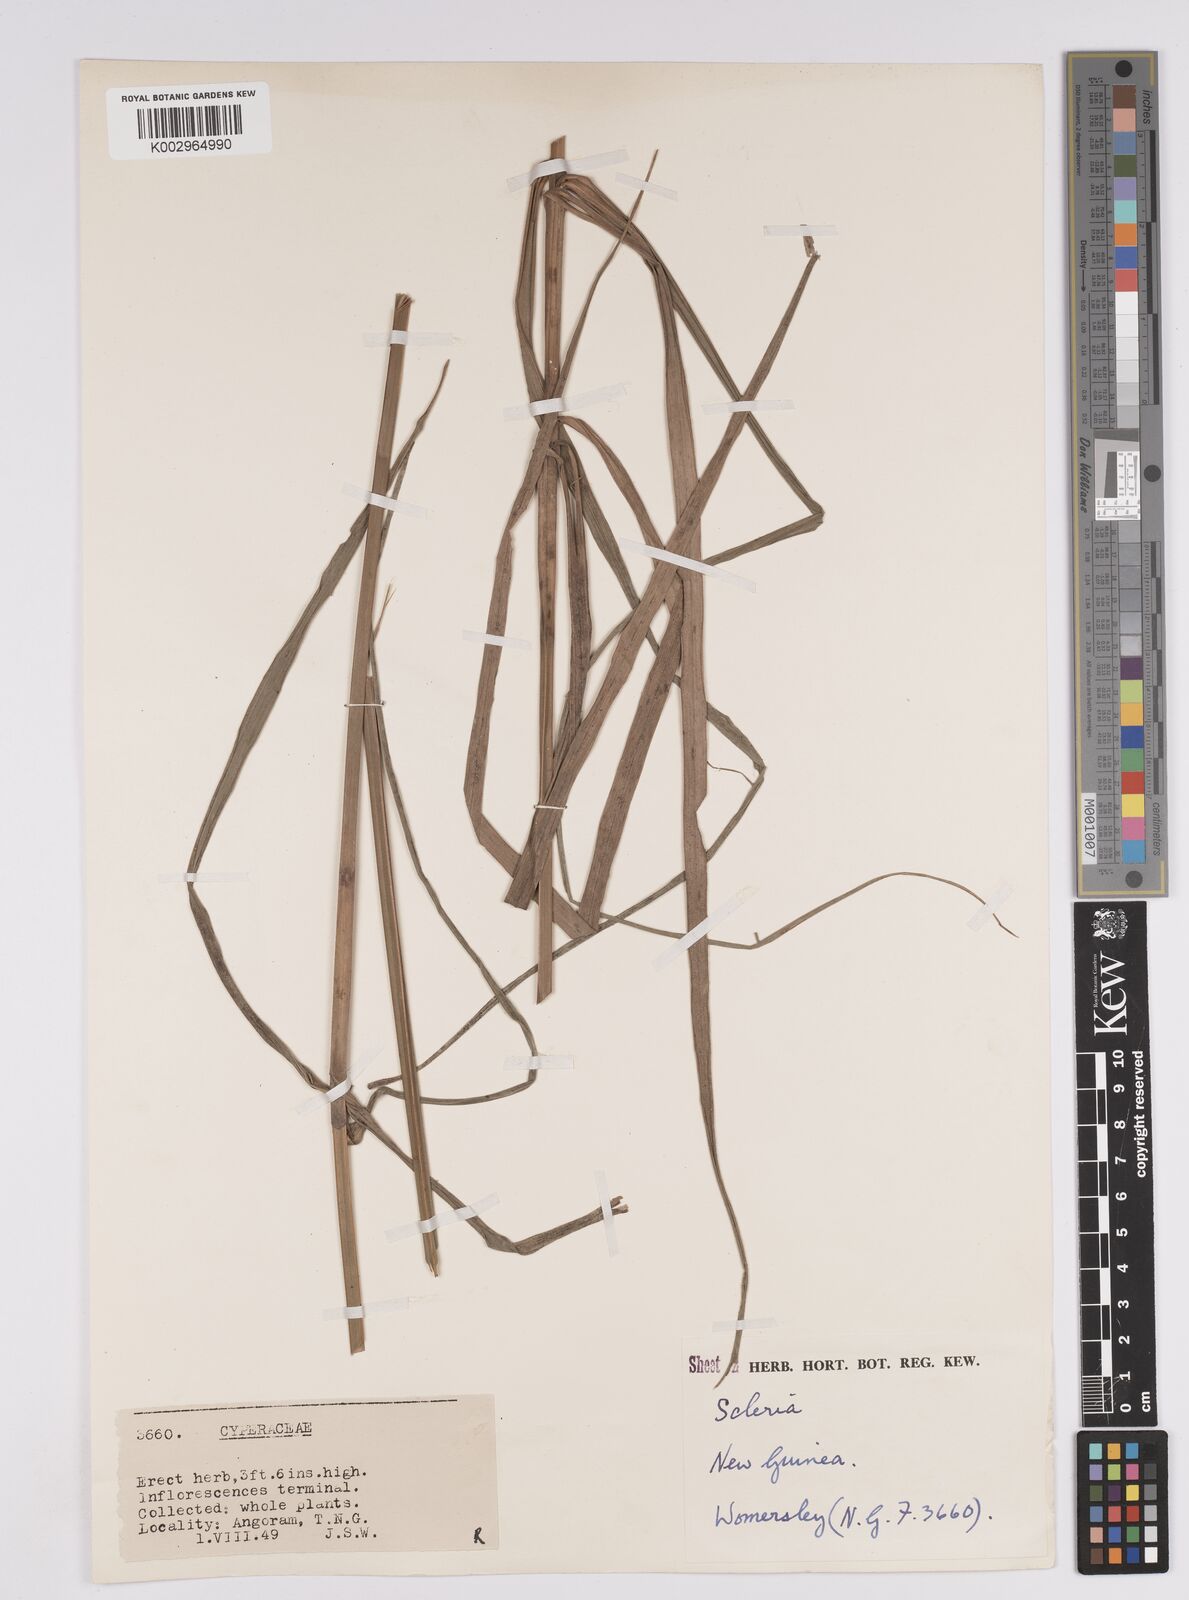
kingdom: Plantae
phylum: Tracheophyta
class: Liliopsida
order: Poales
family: Cyperaceae
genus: Scleria
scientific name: Scleria
